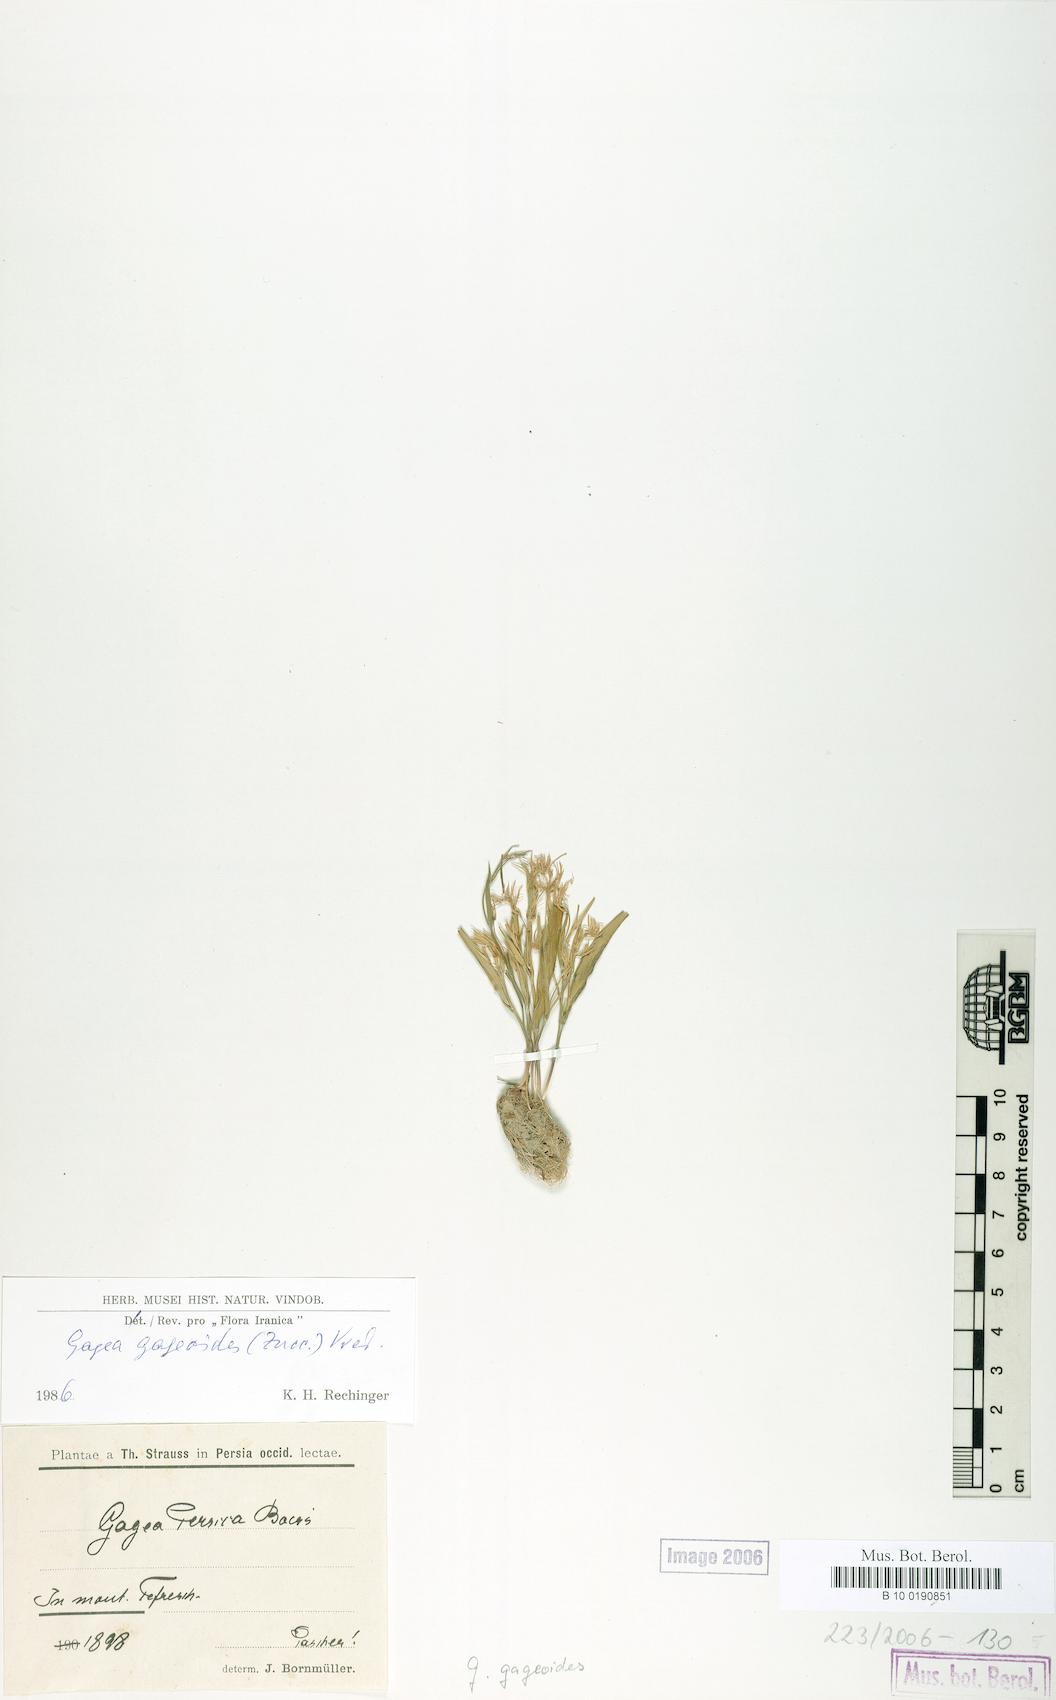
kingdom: Plantae
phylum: Tracheophyta
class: Liliopsida
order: Liliales
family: Liliaceae
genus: Gagea
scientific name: Gagea gageoides
